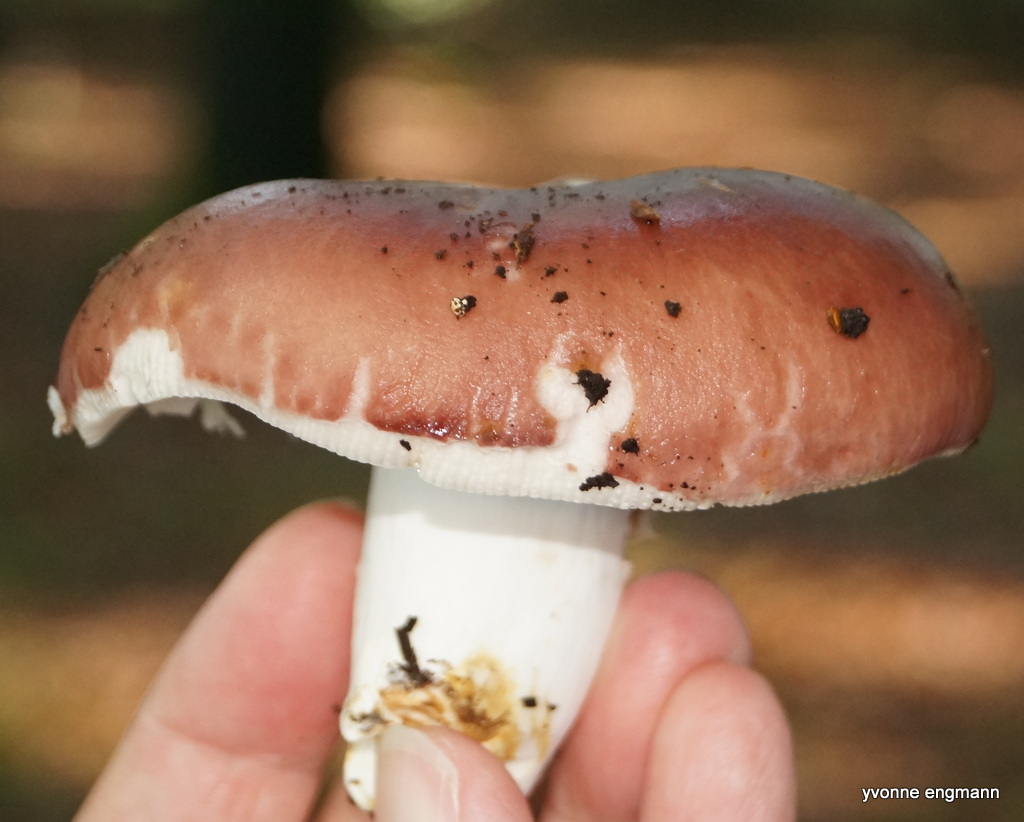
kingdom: Fungi
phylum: Basidiomycota
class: Agaricomycetes
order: Russulales
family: Russulaceae
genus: Russula
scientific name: Russula vesca
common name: spiselig skørhat
